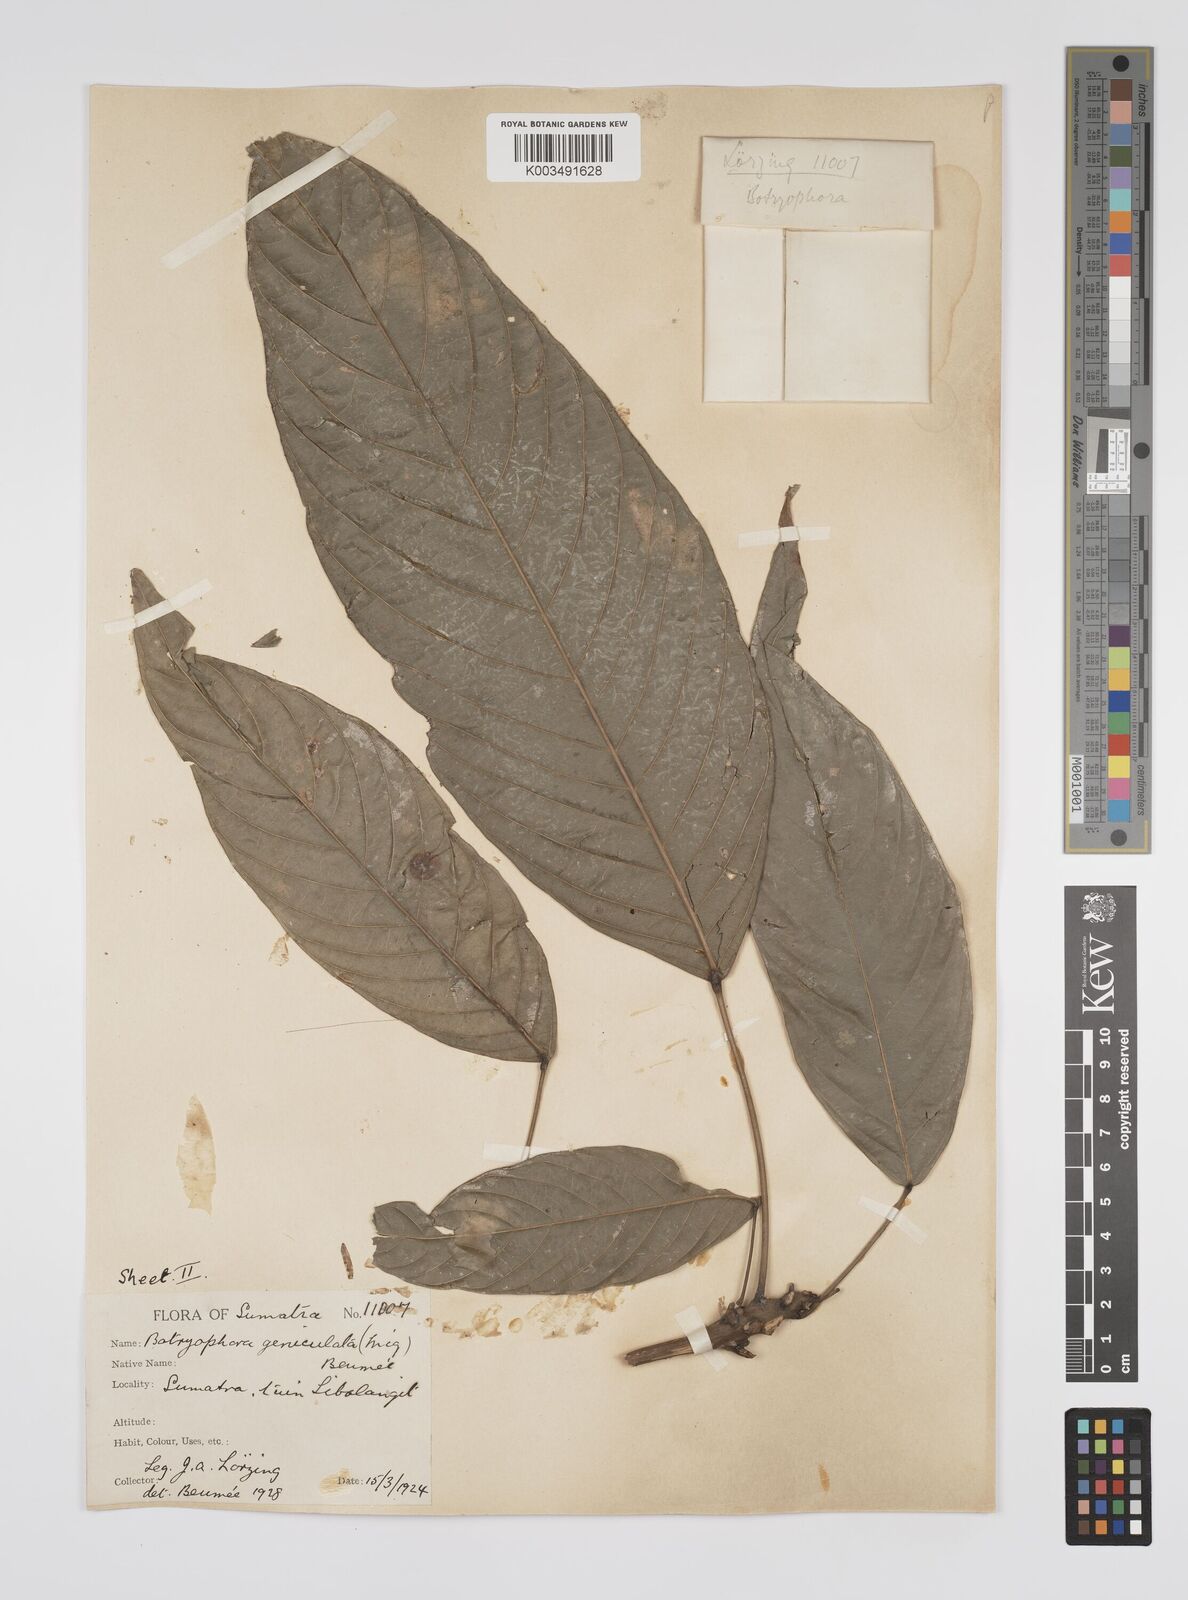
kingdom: Plantae
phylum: Tracheophyta
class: Magnoliopsida
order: Malpighiales
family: Euphorbiaceae
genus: Botryophora
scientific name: Botryophora geniculata
